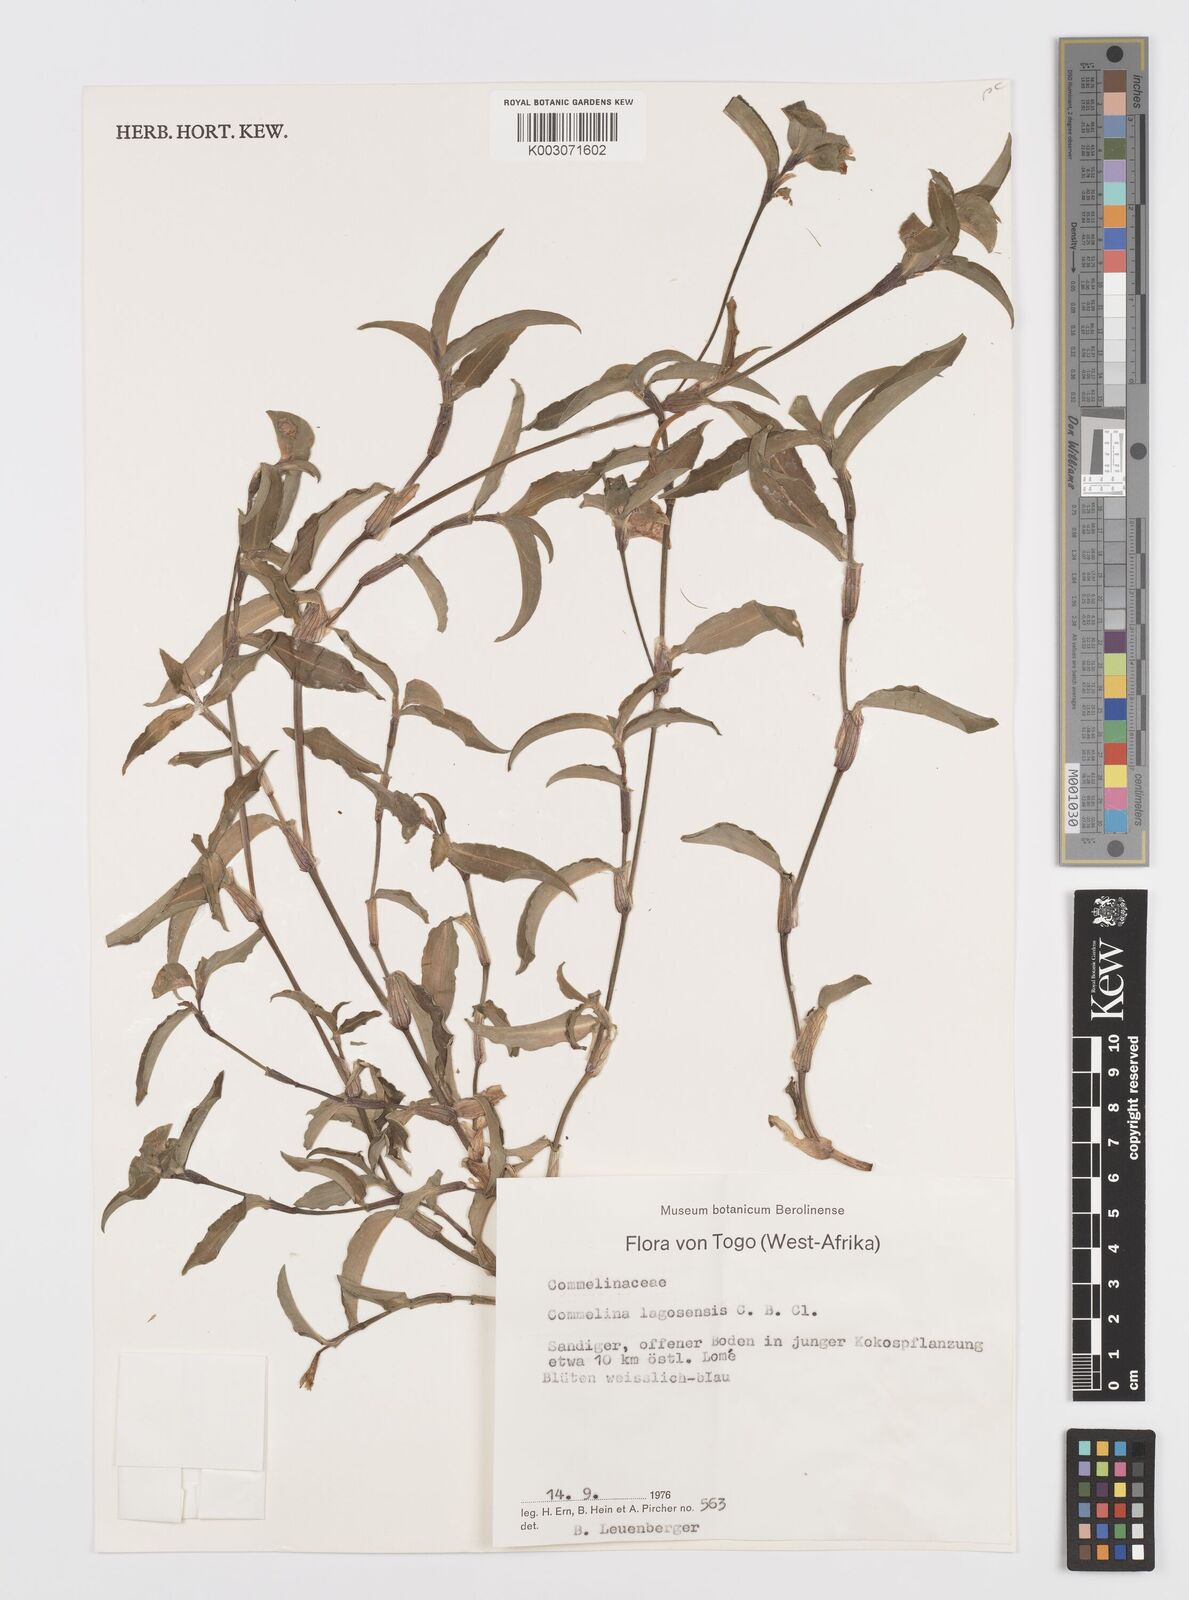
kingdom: Plantae
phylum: Tracheophyta
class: Liliopsida
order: Commelinales
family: Commelinaceae
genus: Commelina
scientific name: Commelina bracteosa
